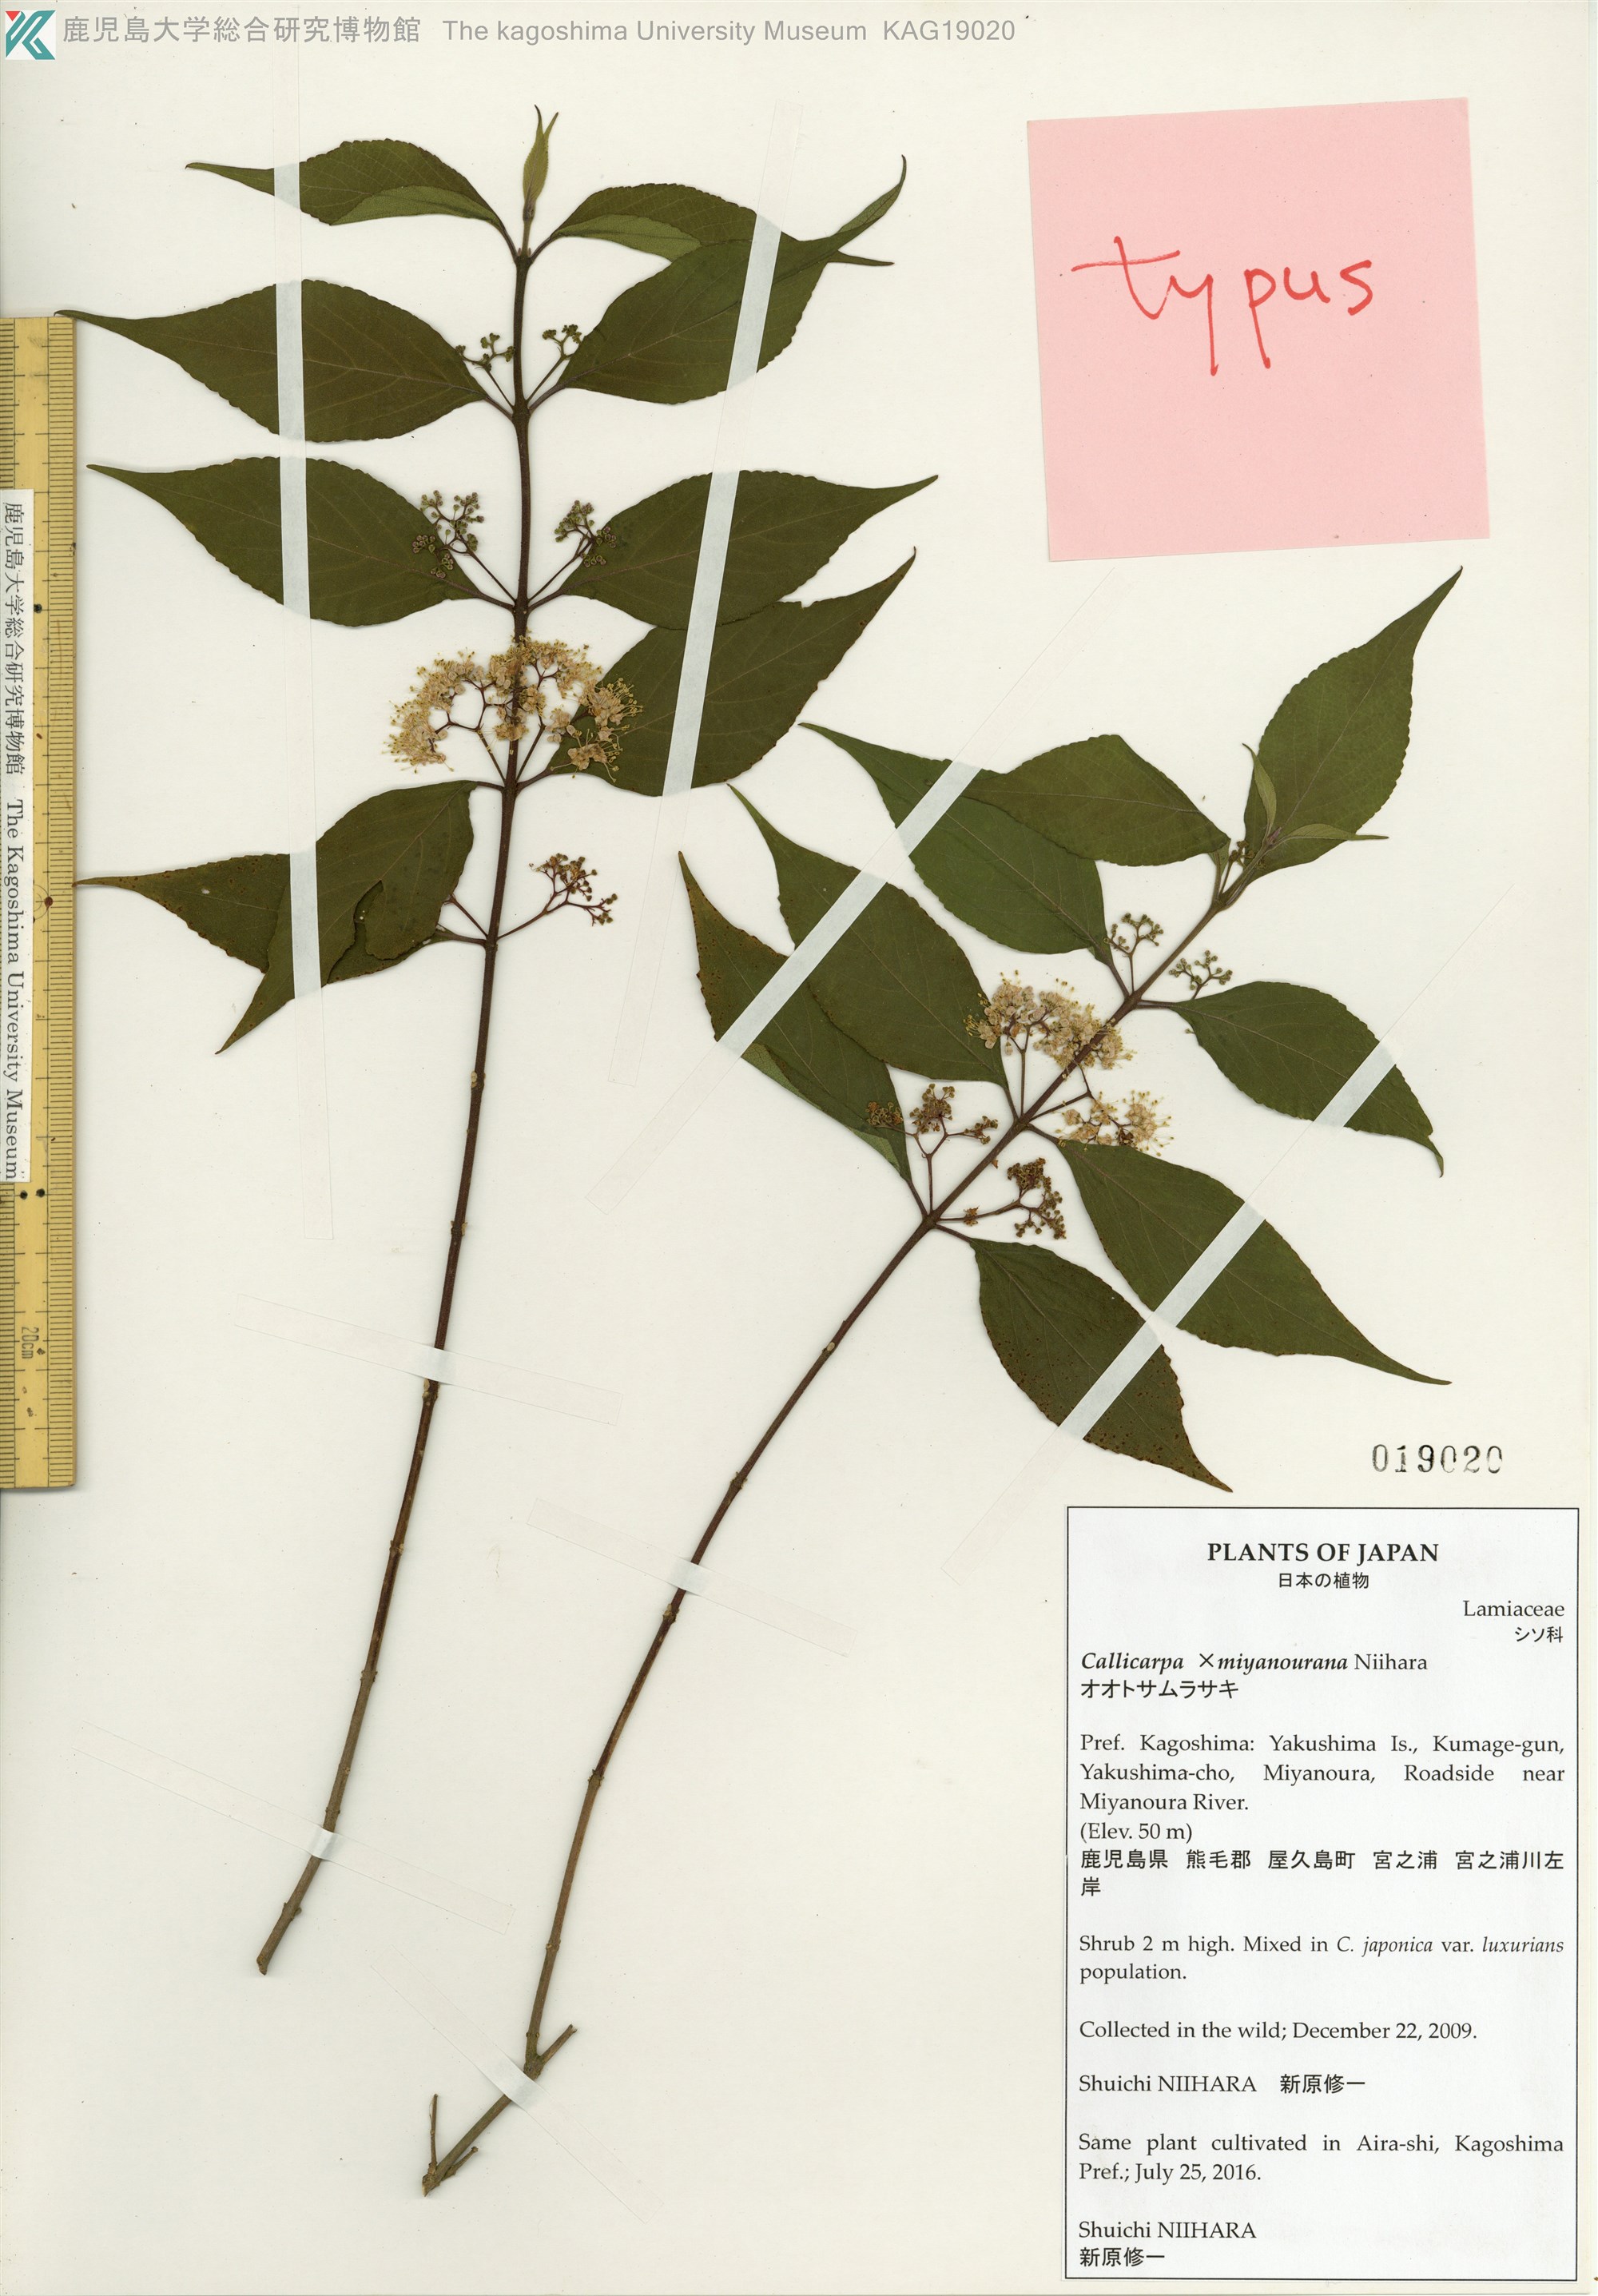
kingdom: Plantae
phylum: Tracheophyta
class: Magnoliopsida
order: Lamiales
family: Lamiaceae
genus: Callicarpa
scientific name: Callicarpa
